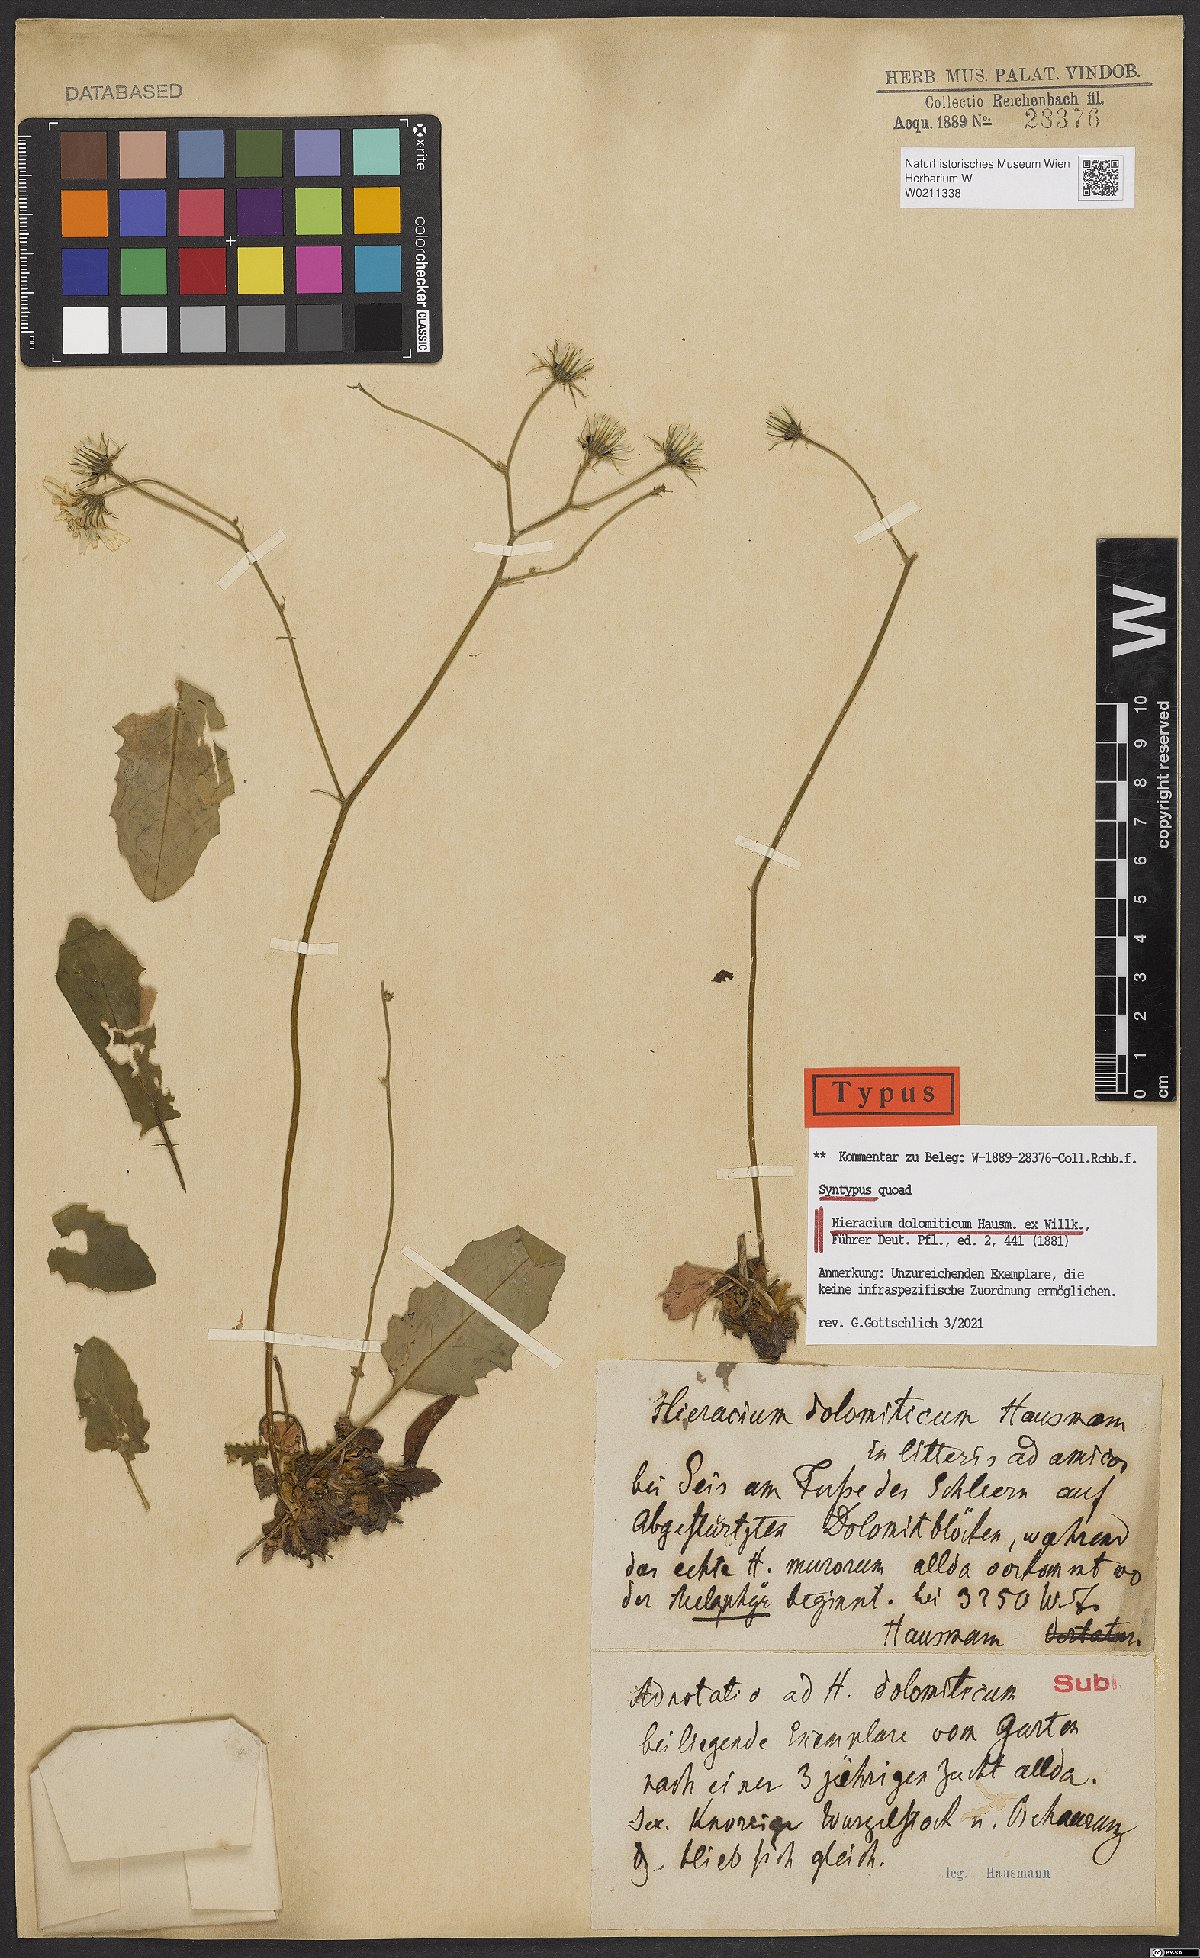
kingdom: Plantae
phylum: Tracheophyta
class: Magnoliopsida
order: Asterales
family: Asteraceae
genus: Hieracium
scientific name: Hieracium bifidum
